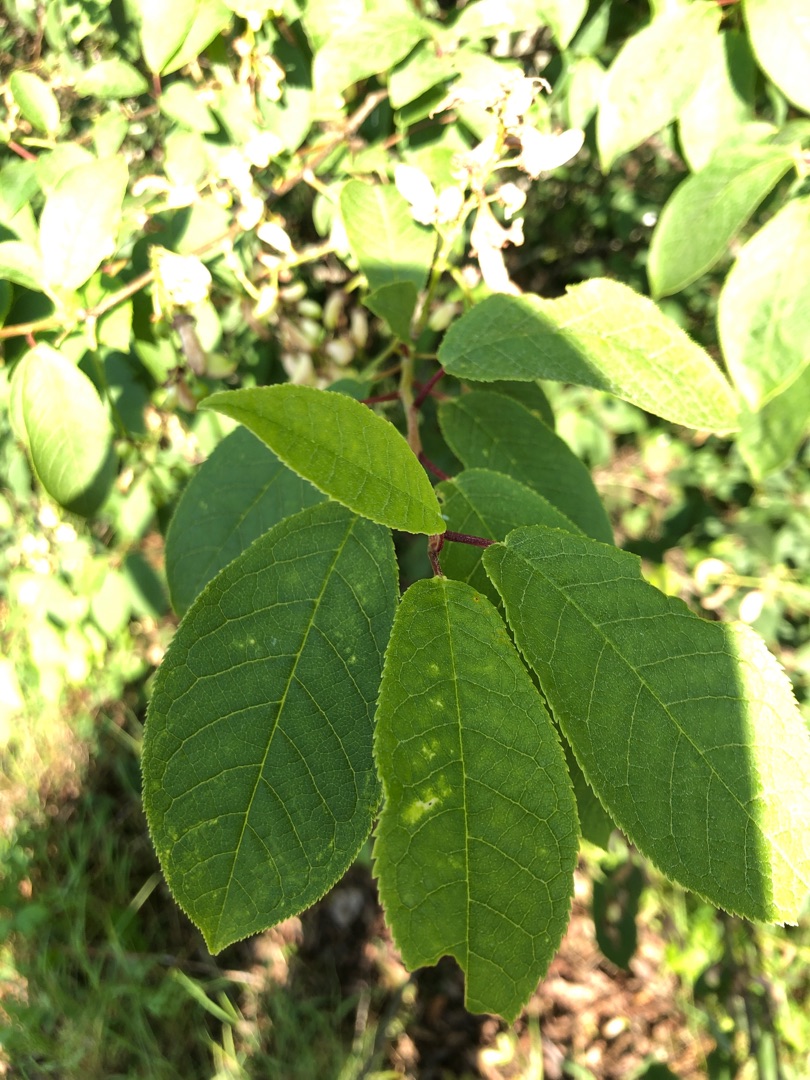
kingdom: Plantae
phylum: Tracheophyta
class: Magnoliopsida
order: Rosales
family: Rosaceae
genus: Prunus
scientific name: Prunus padus
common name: Almindelig hæg
